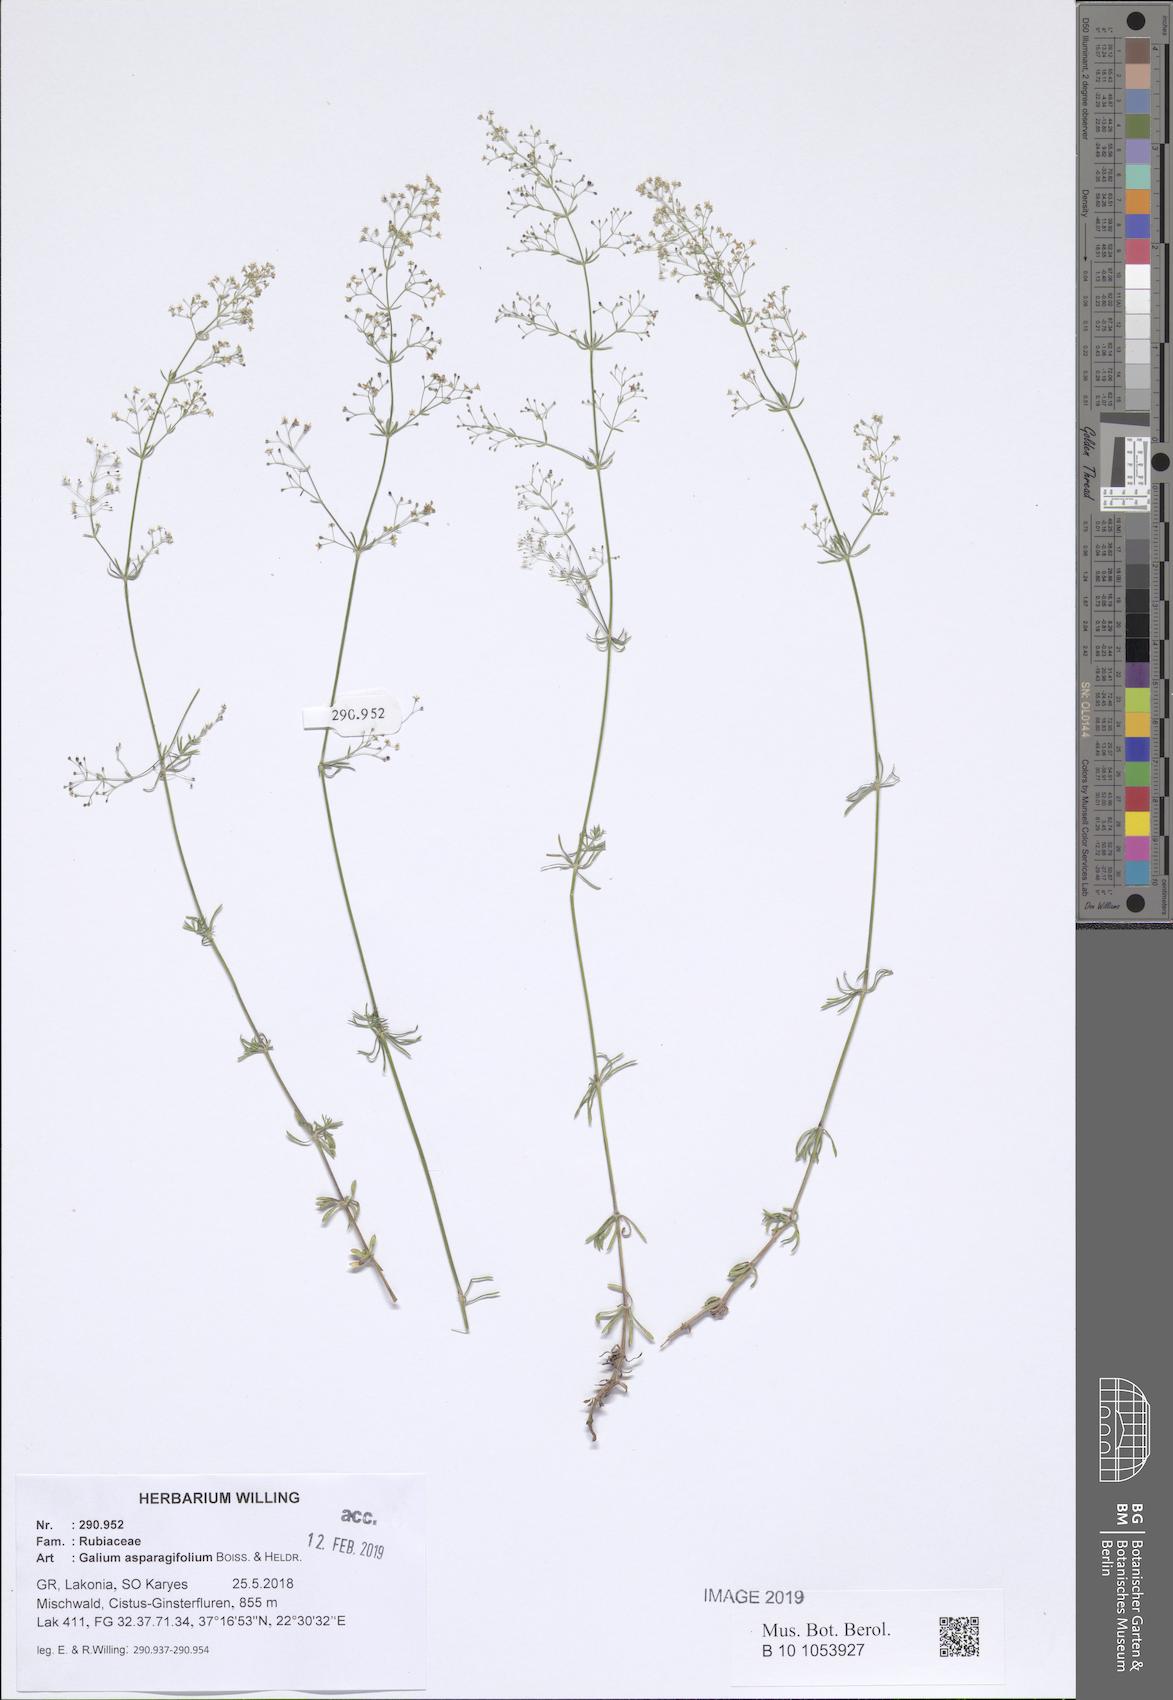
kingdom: Plantae
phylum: Tracheophyta
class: Magnoliopsida
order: Gentianales
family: Rubiaceae
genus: Galium
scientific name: Galium asparagifolium
